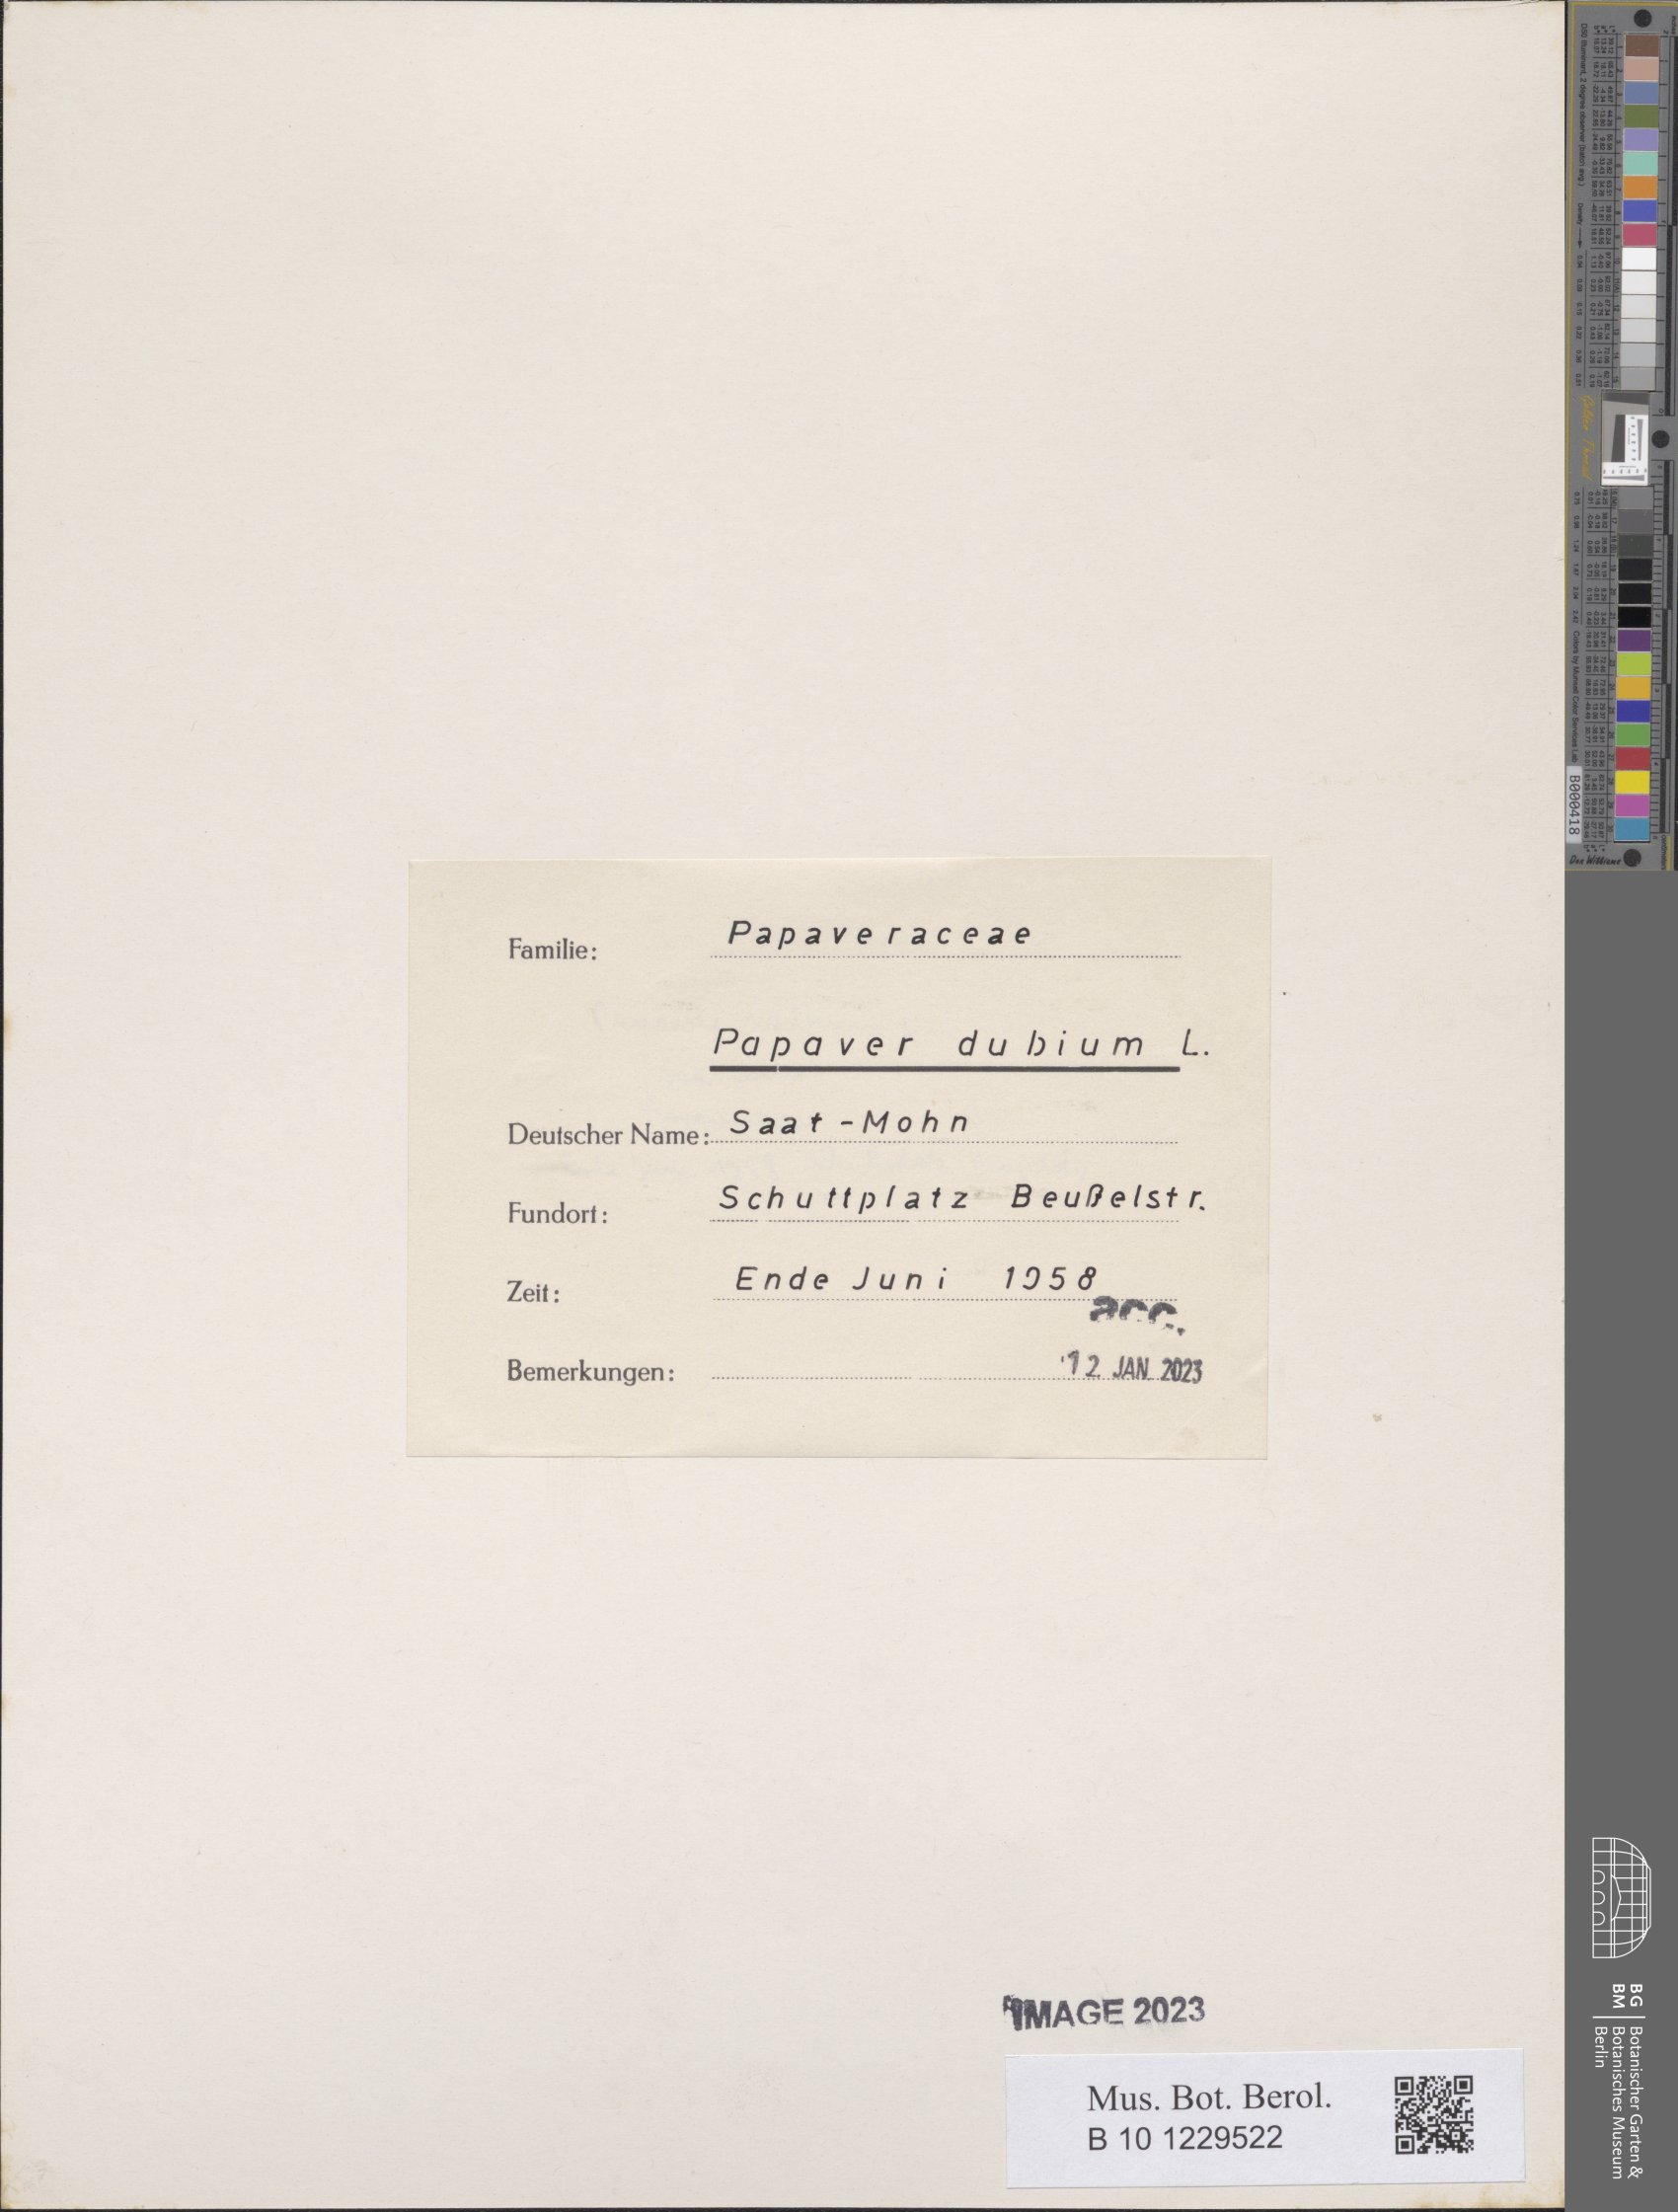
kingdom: Plantae
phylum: Tracheophyta
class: Magnoliopsida
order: Ranunculales
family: Papaveraceae
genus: Papaver
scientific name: Papaver dubium
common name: Long-headed poppy
